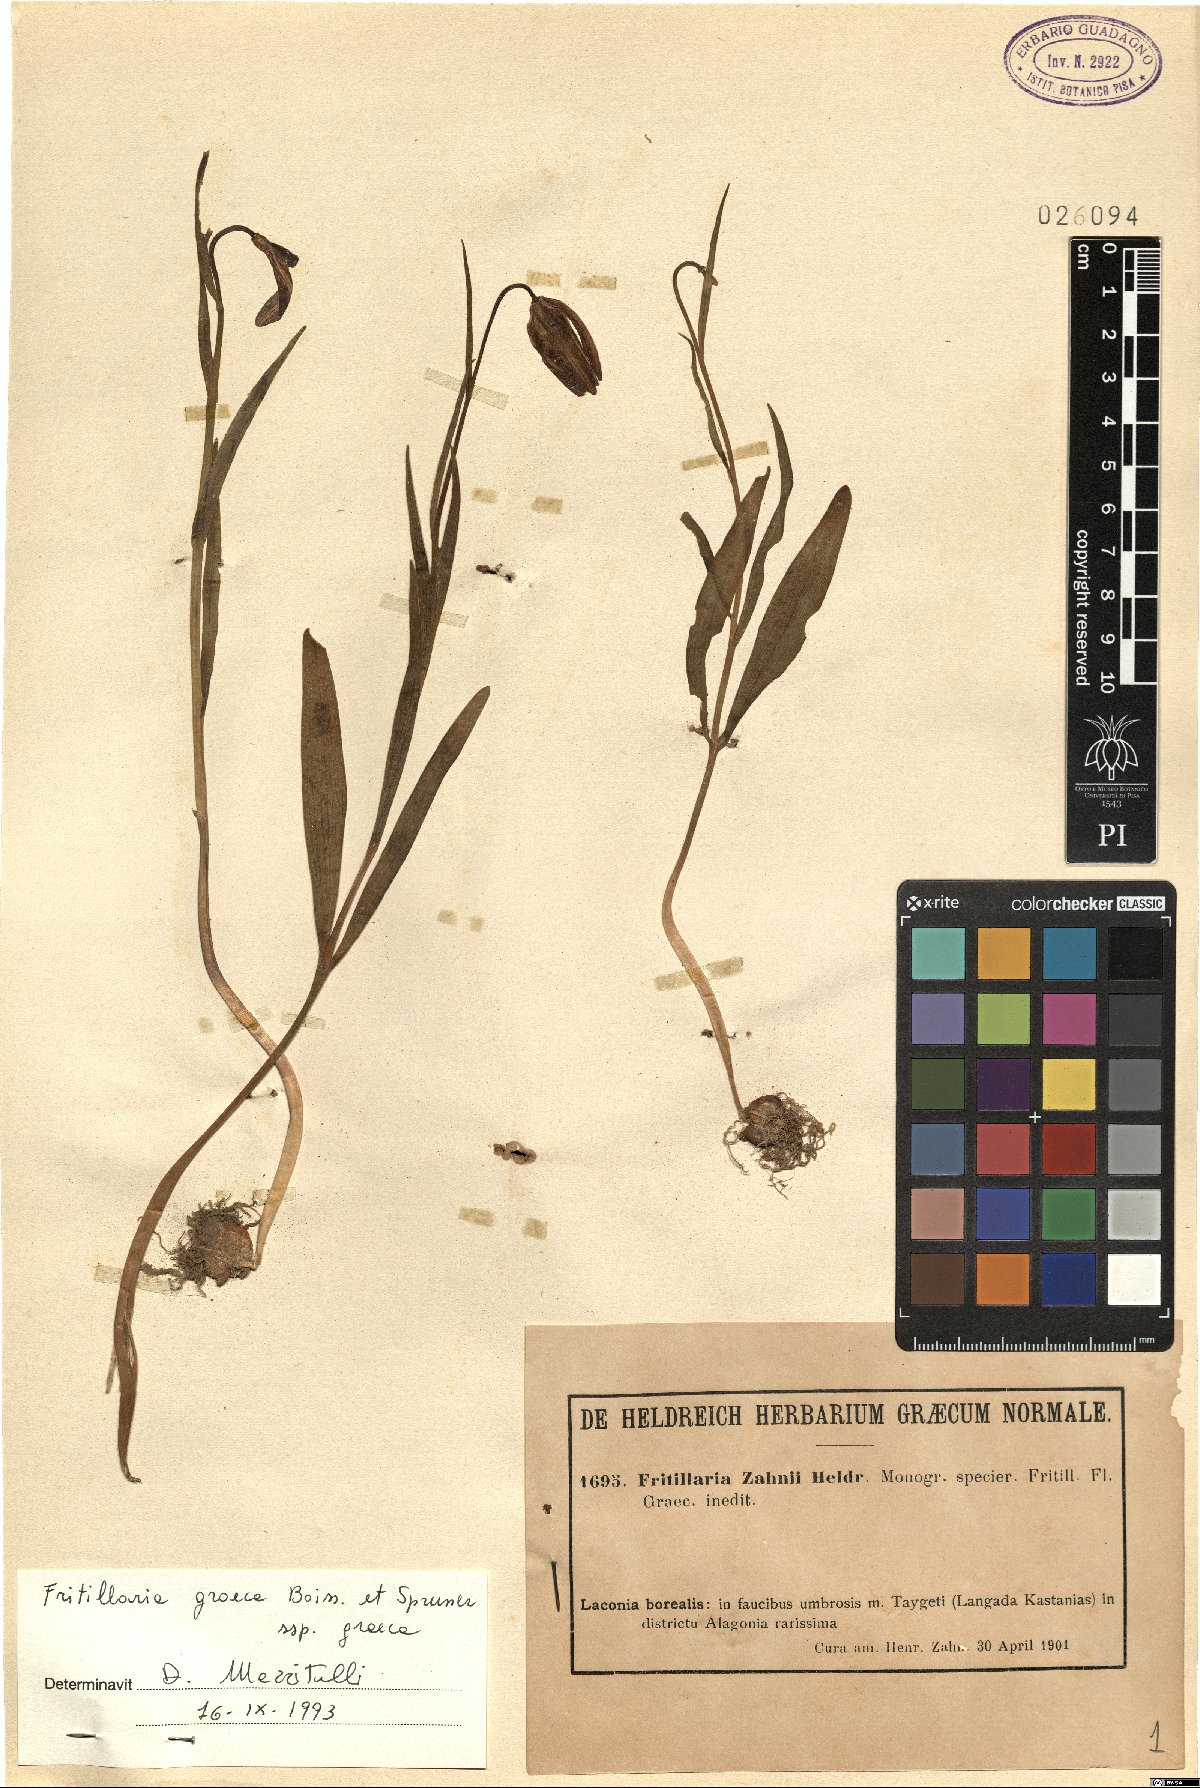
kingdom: Plantae
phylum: Tracheophyta
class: Liliopsida
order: Liliales
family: Liliaceae
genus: Fritillaria
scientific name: Fritillaria graeca
